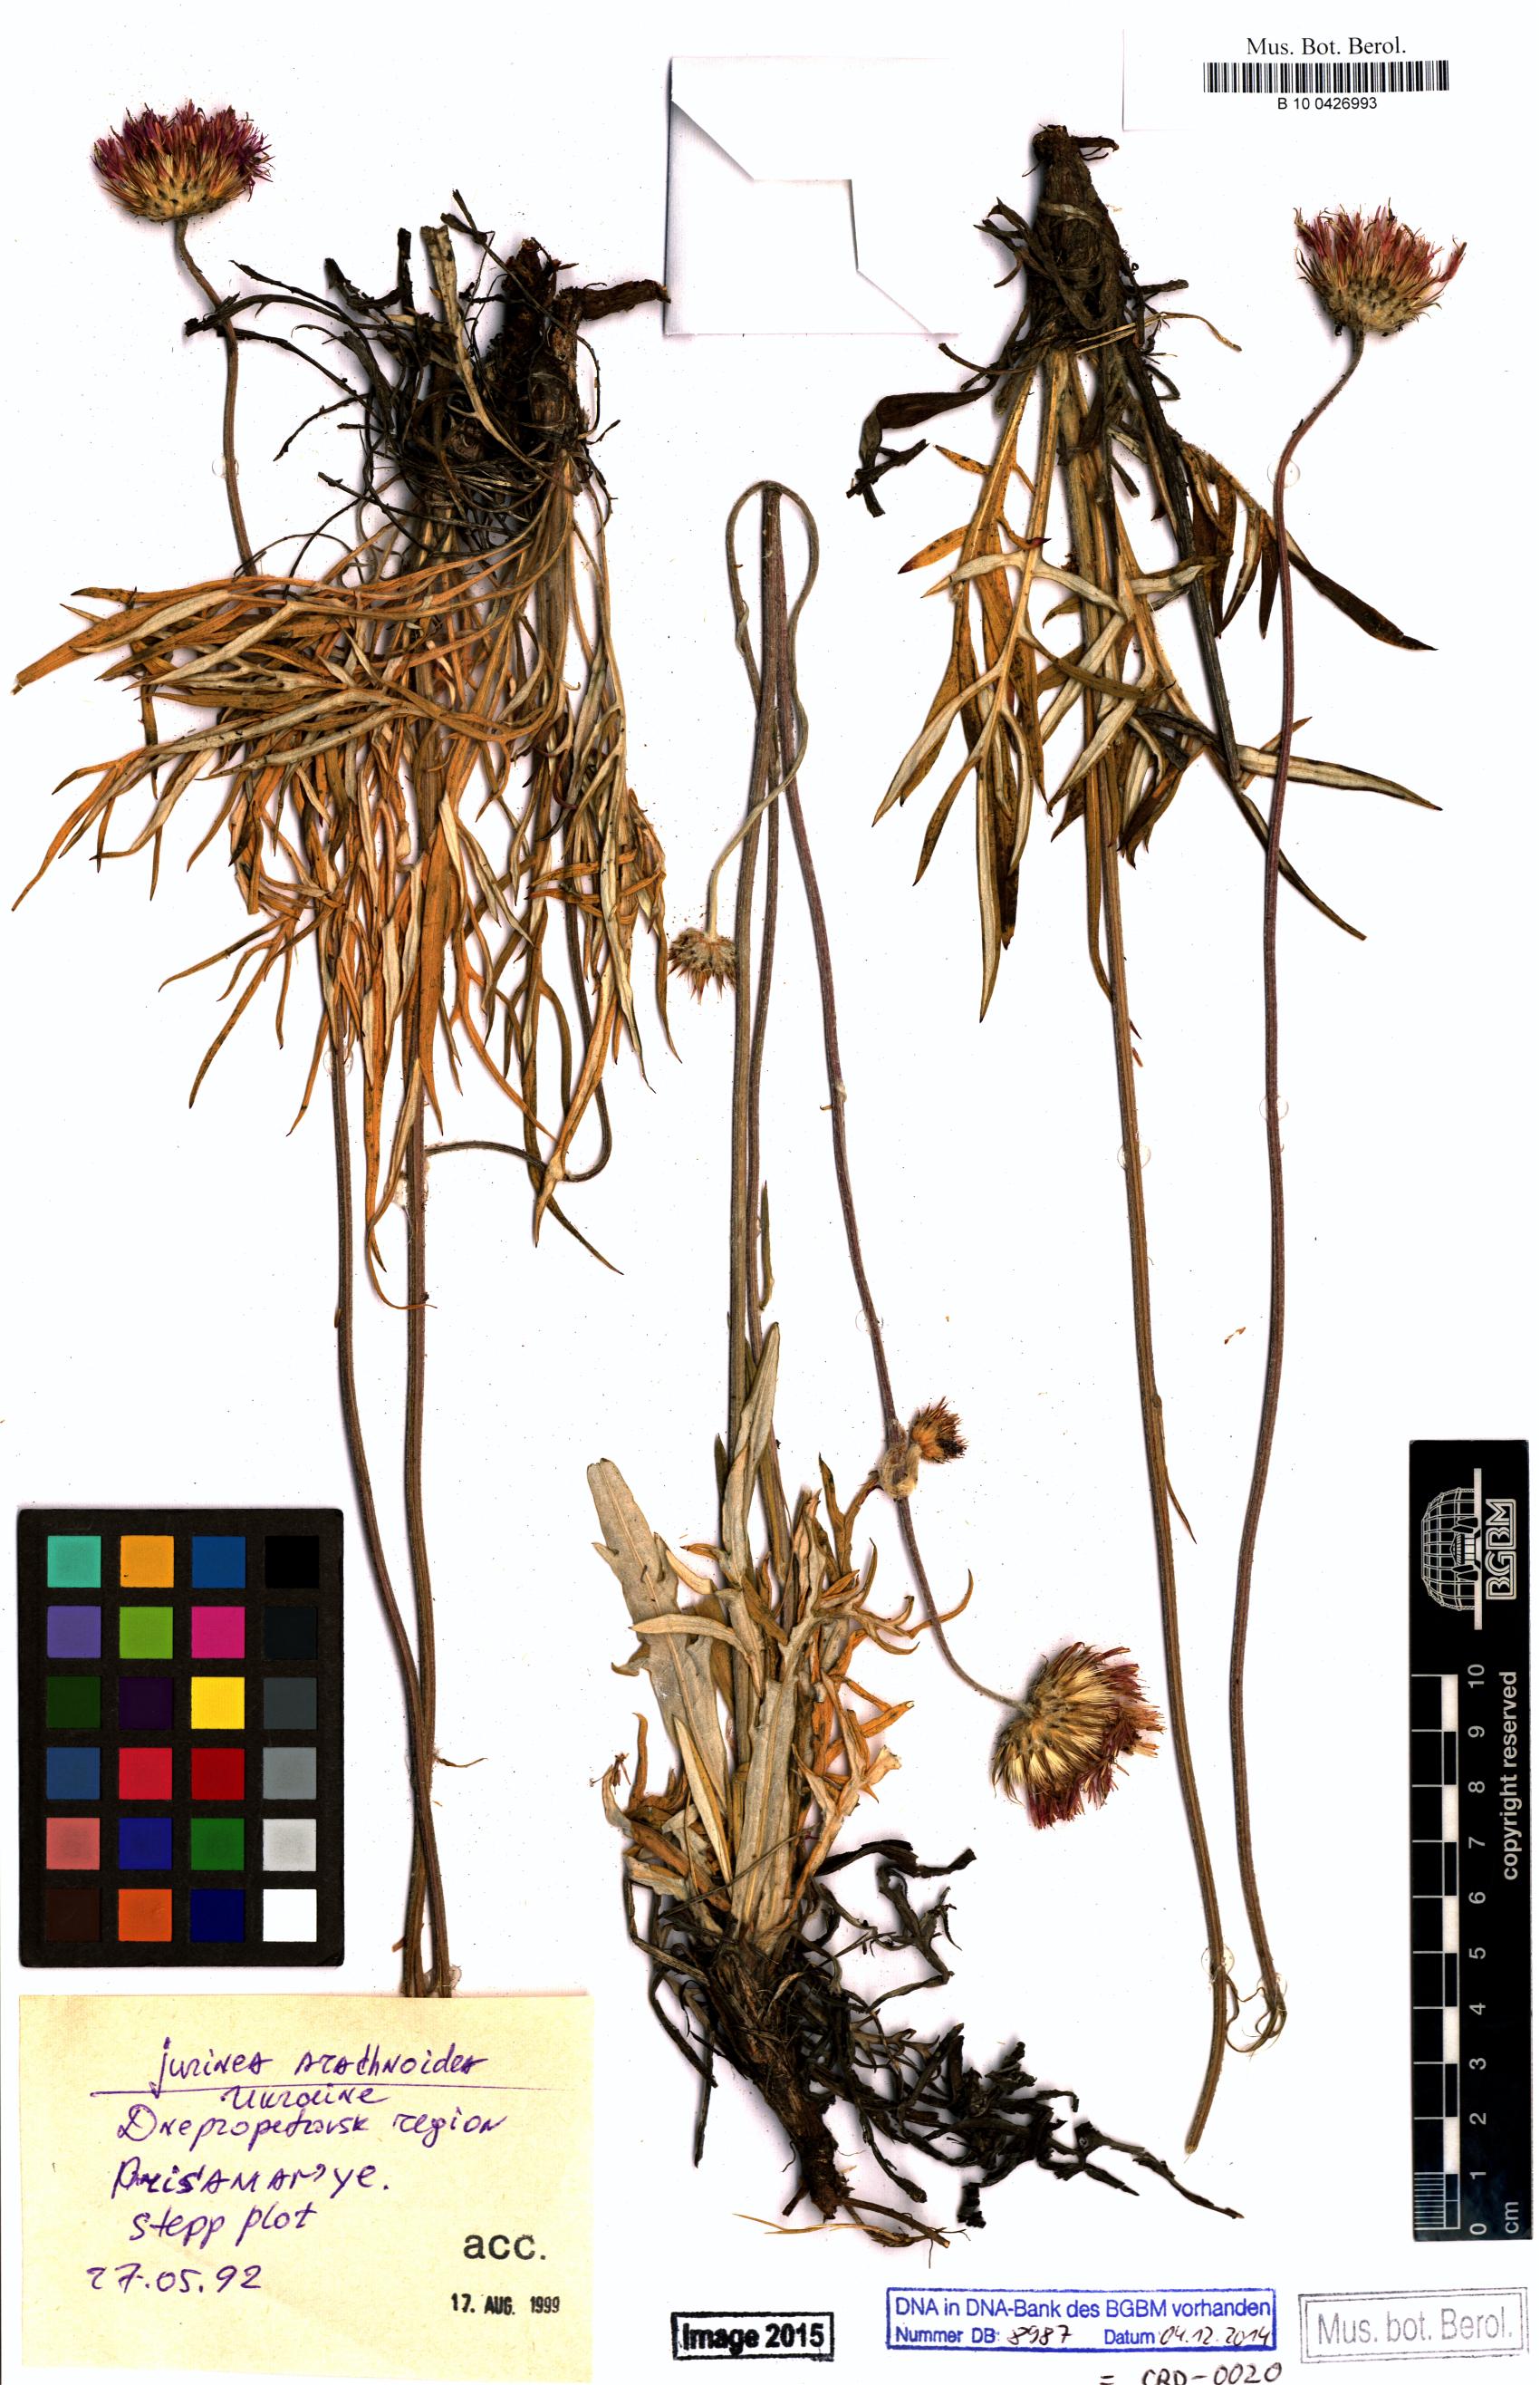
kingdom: Plantae
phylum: Tracheophyta
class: Magnoliopsida
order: Asterales
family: Asteraceae
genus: Jurinea
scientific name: Jurinea arachnoidea
